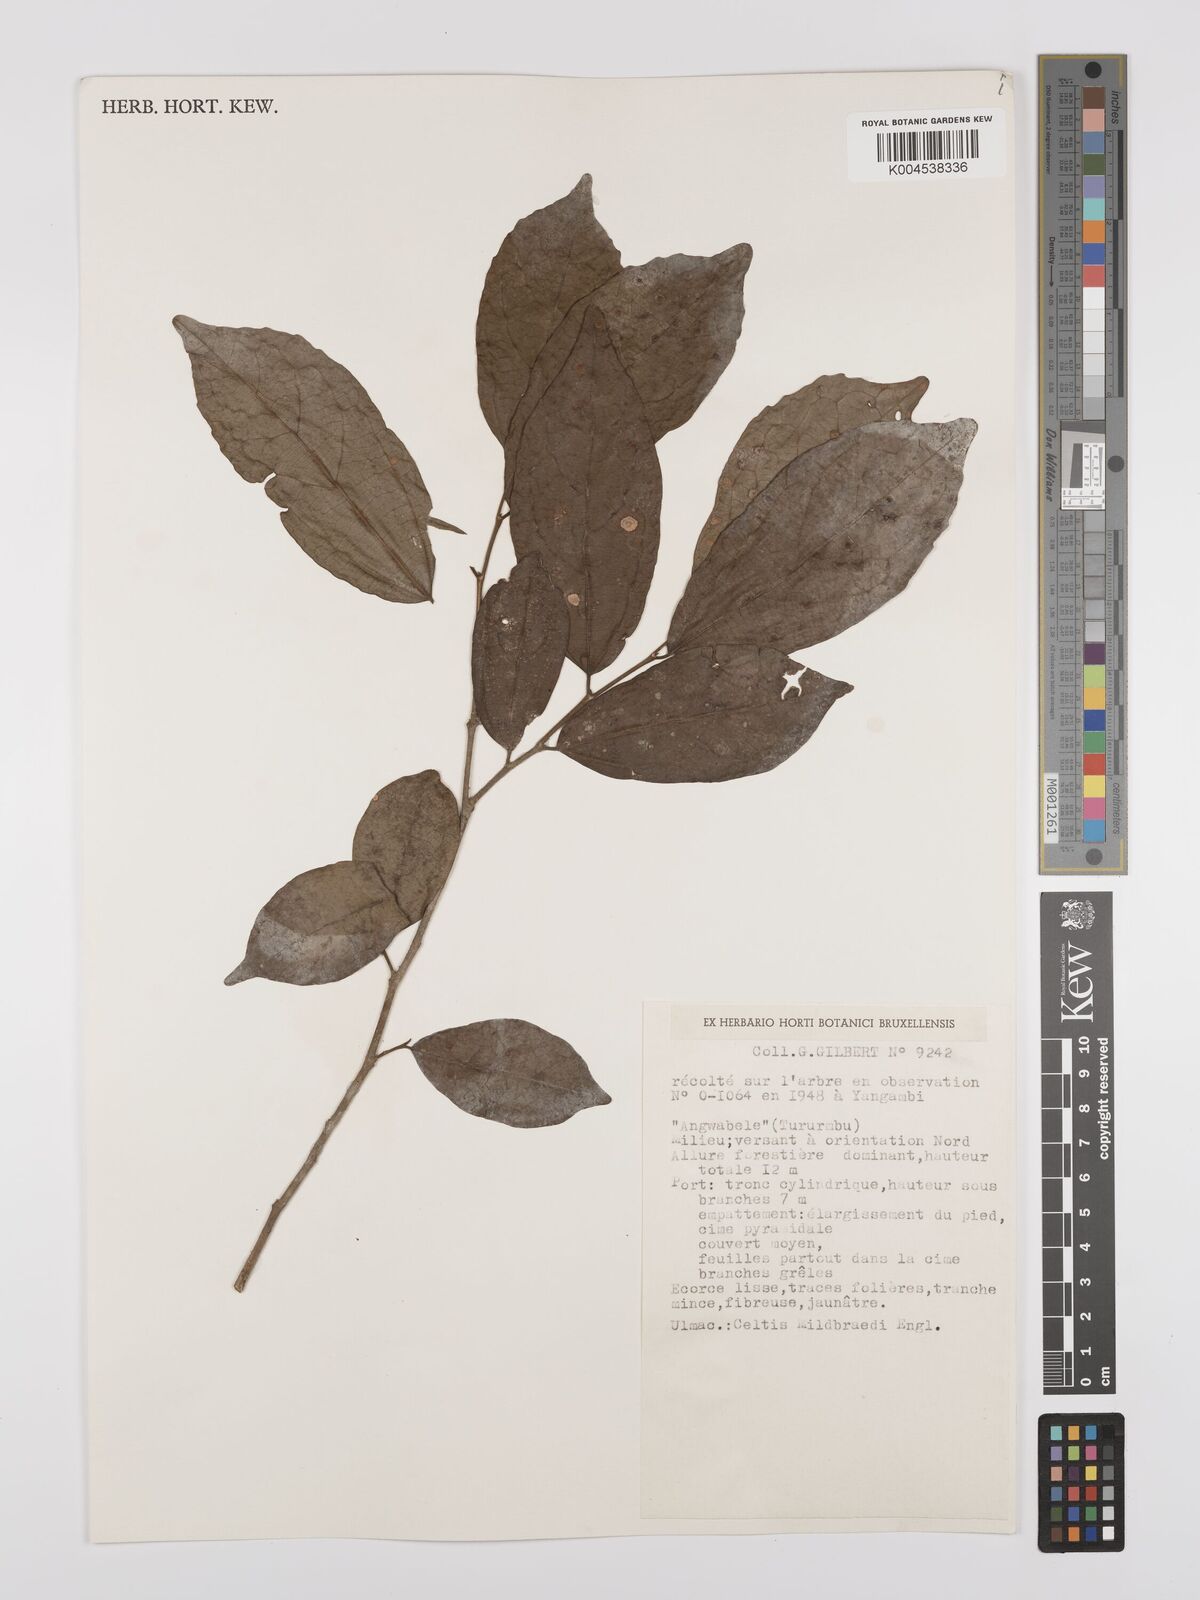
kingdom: Plantae
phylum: Tracheophyta
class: Magnoliopsida
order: Rosales
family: Cannabaceae
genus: Celtis
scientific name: Celtis mildbraedii
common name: Red-fruited stinkwood
